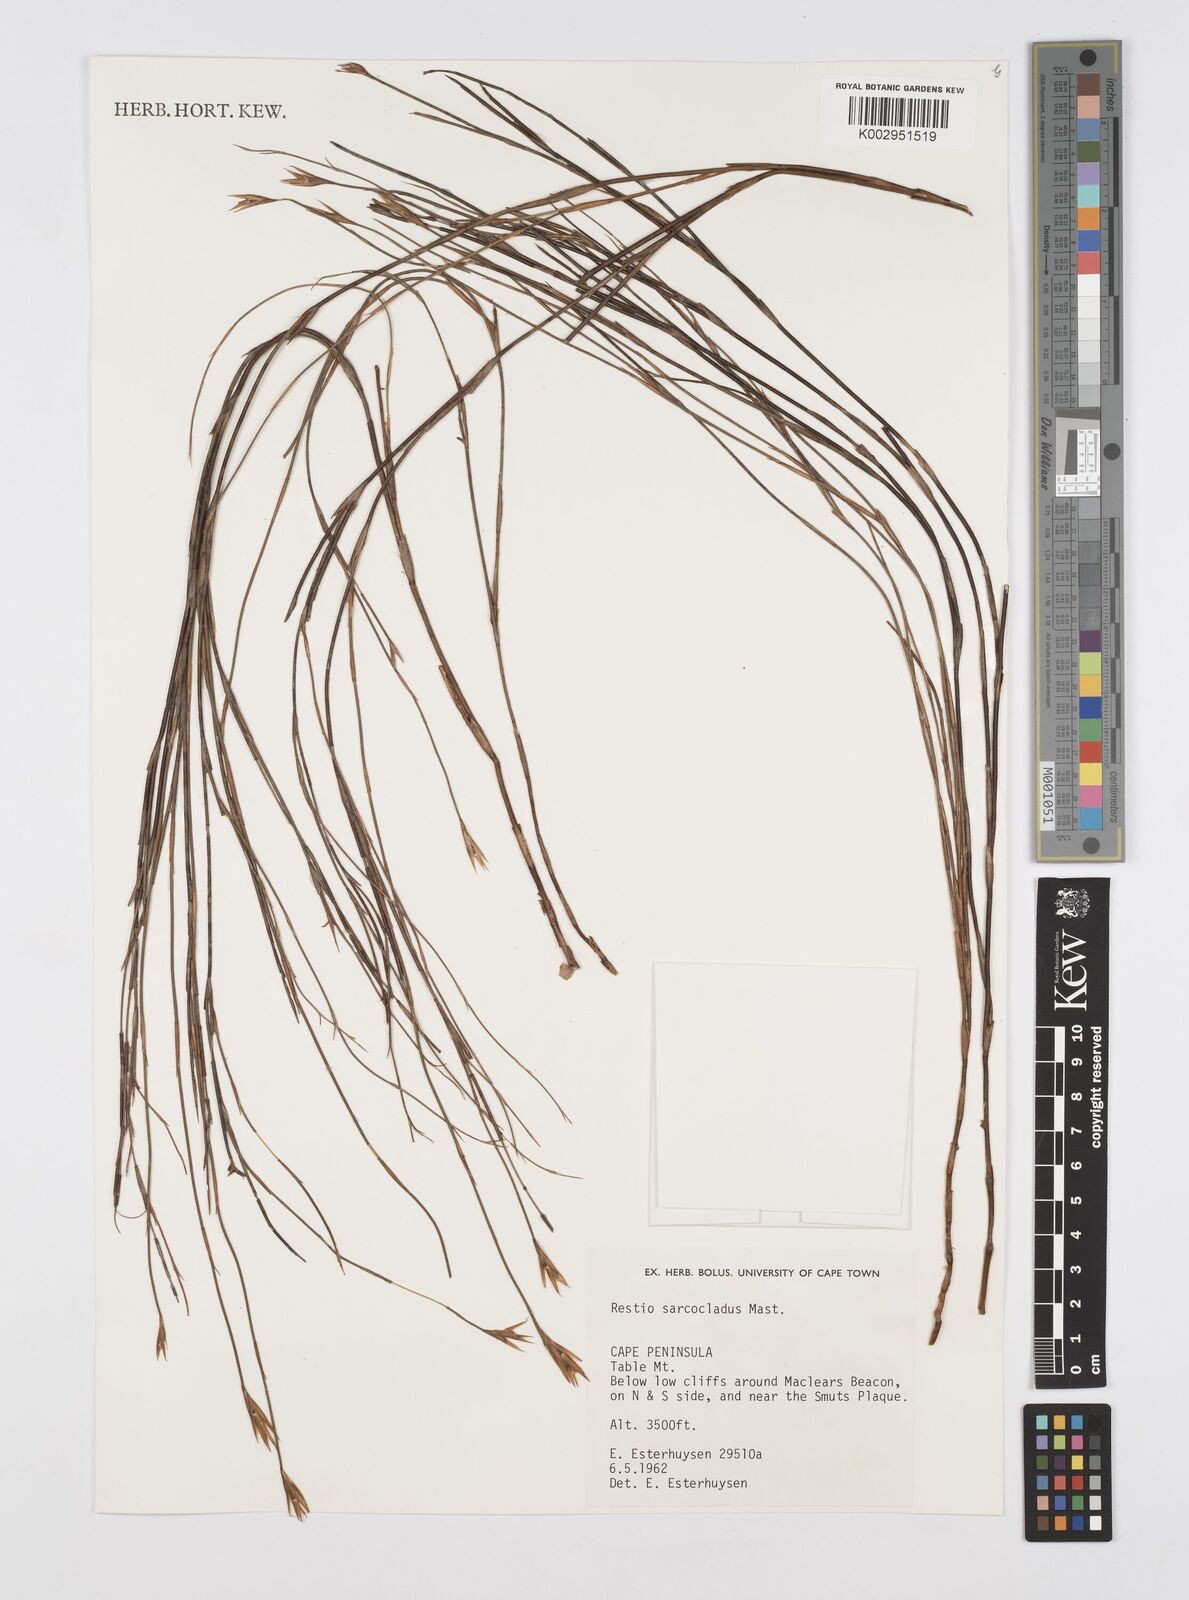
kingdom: Plantae
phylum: Tracheophyta
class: Liliopsida
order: Poales
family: Restionaceae
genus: Restio
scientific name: Restio saroclados
